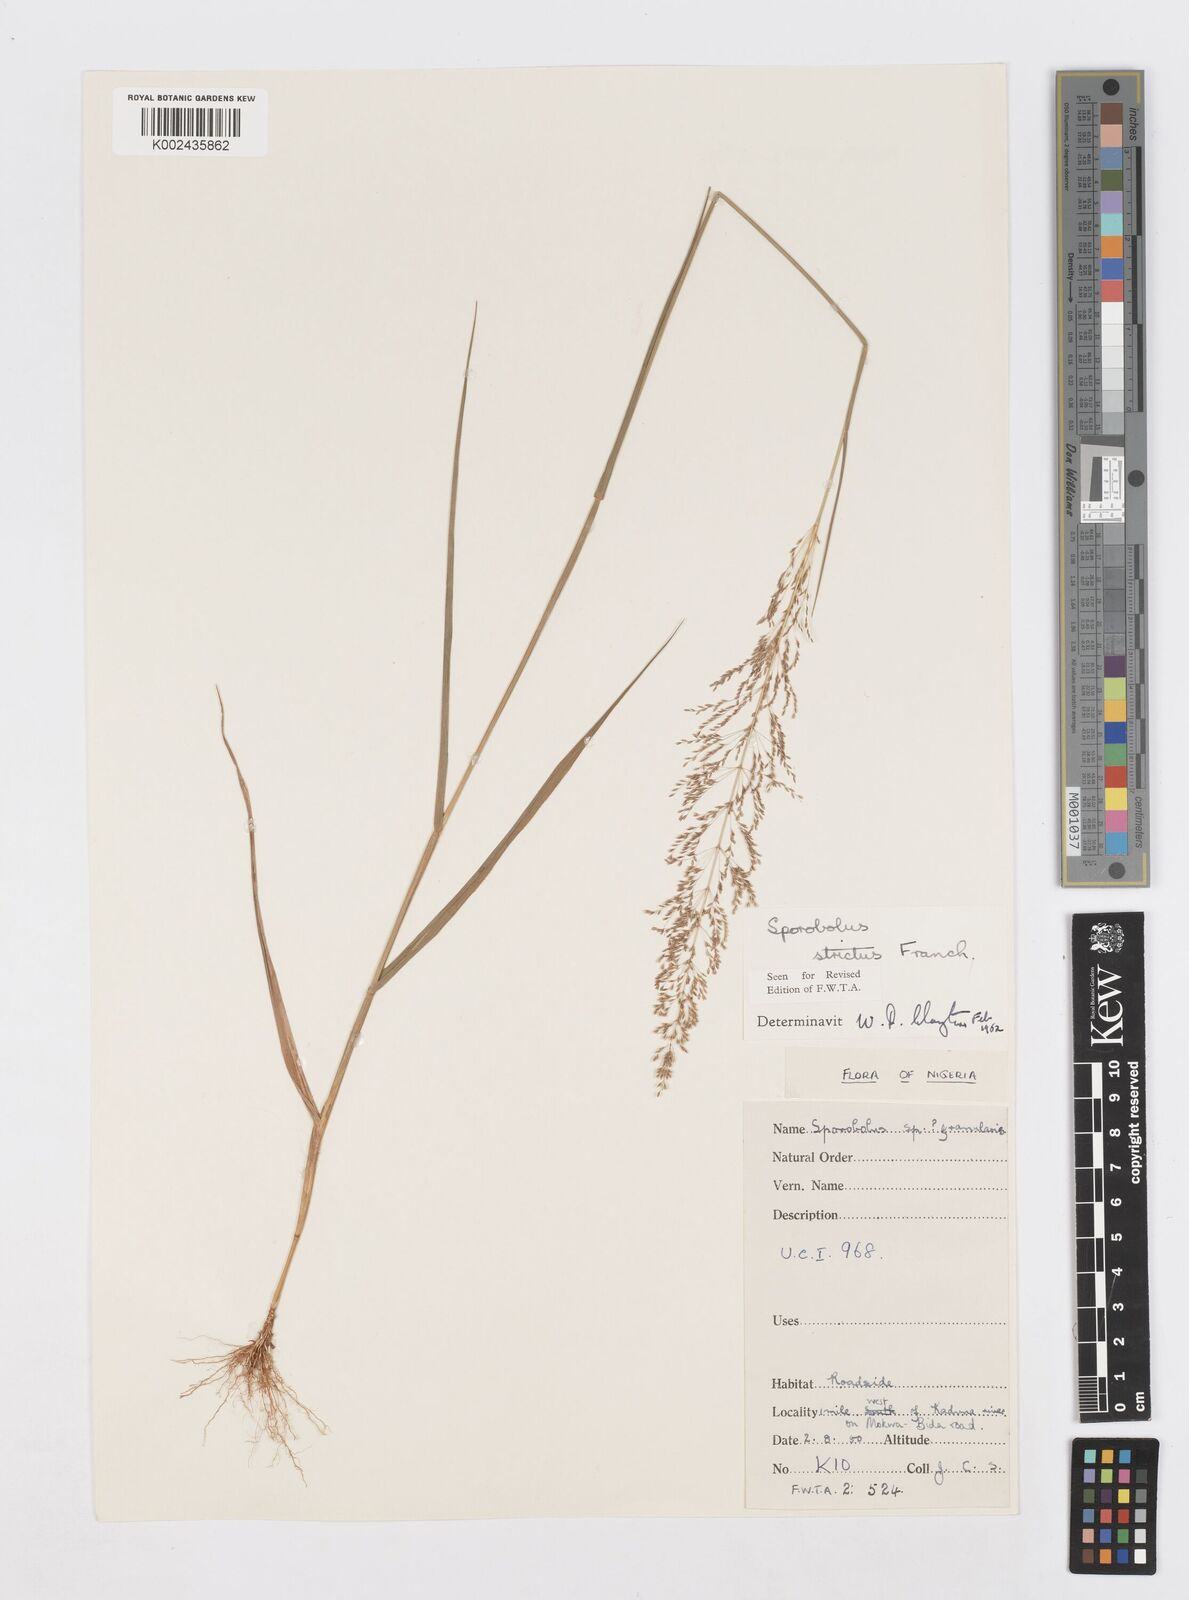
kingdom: Plantae
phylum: Tracheophyta
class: Liliopsida
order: Poales
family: Poaceae
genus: Sporobolus
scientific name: Sporobolus paniculatus
